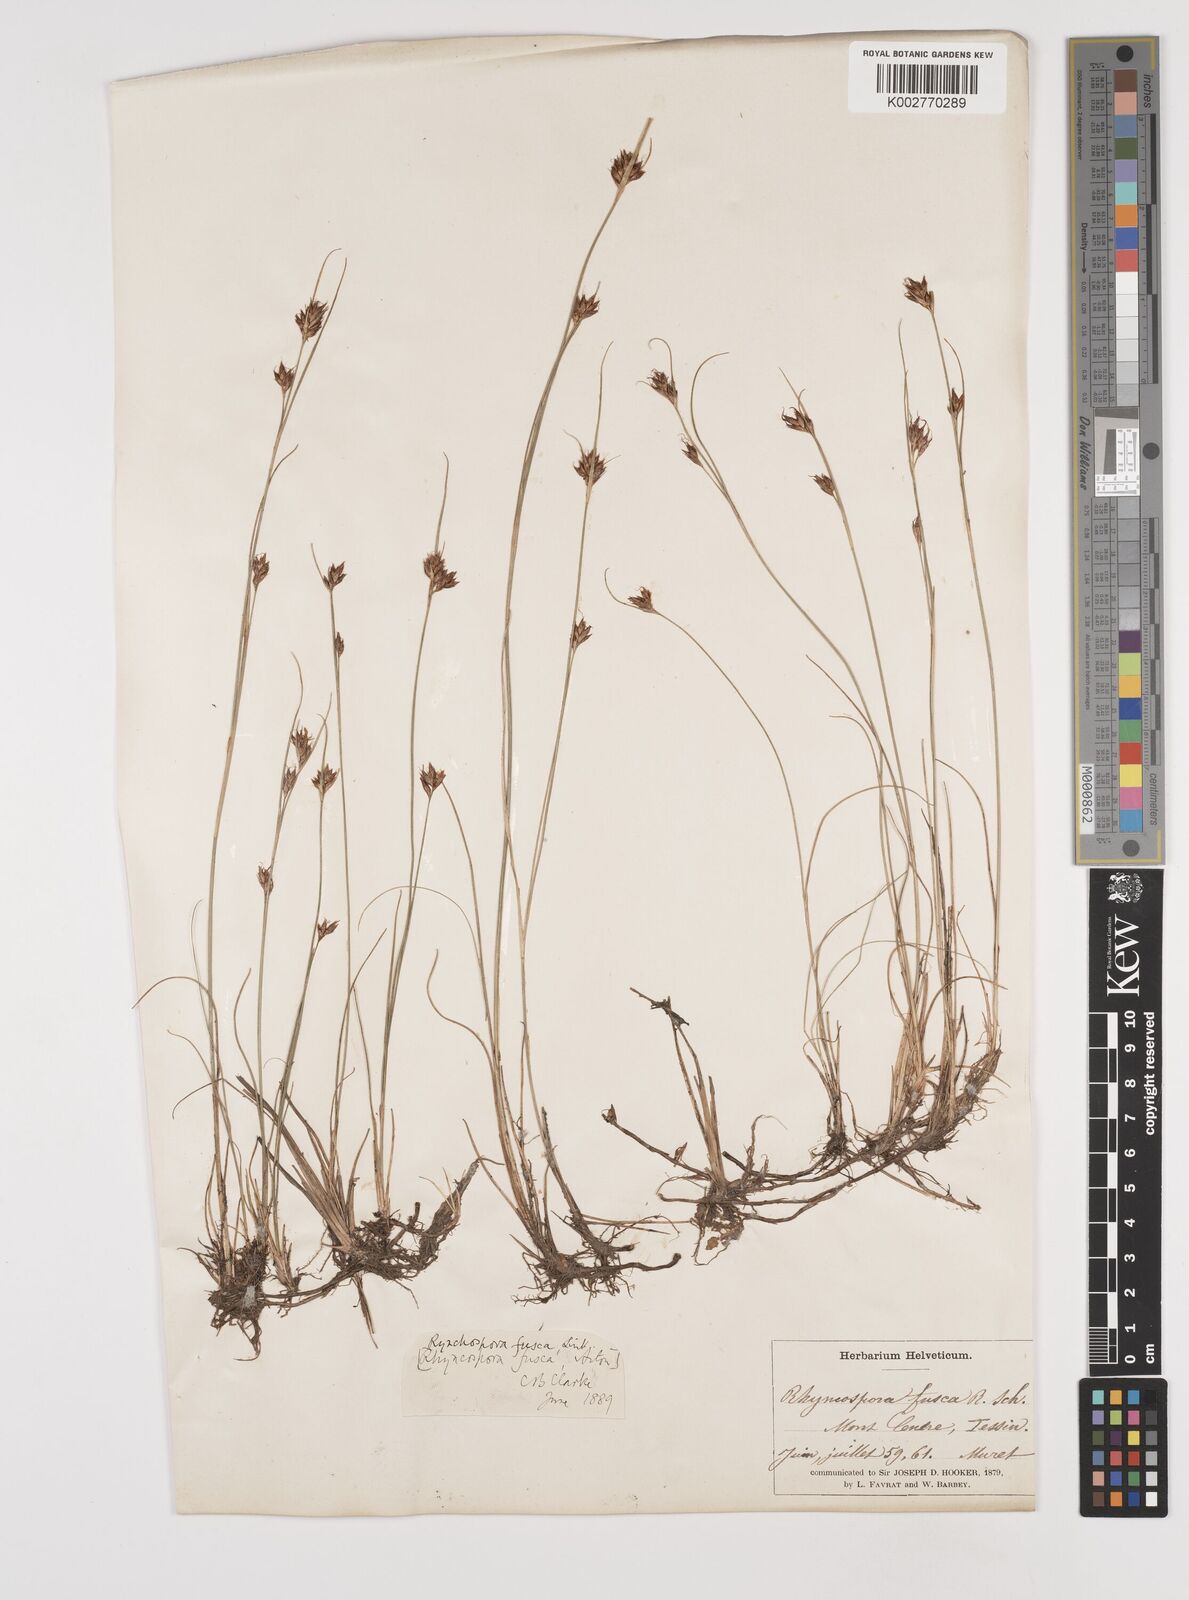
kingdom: Plantae
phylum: Tracheophyta
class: Liliopsida
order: Poales
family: Cyperaceae
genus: Rhynchospora
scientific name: Rhynchospora fusca
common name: Brown beak-sedge
